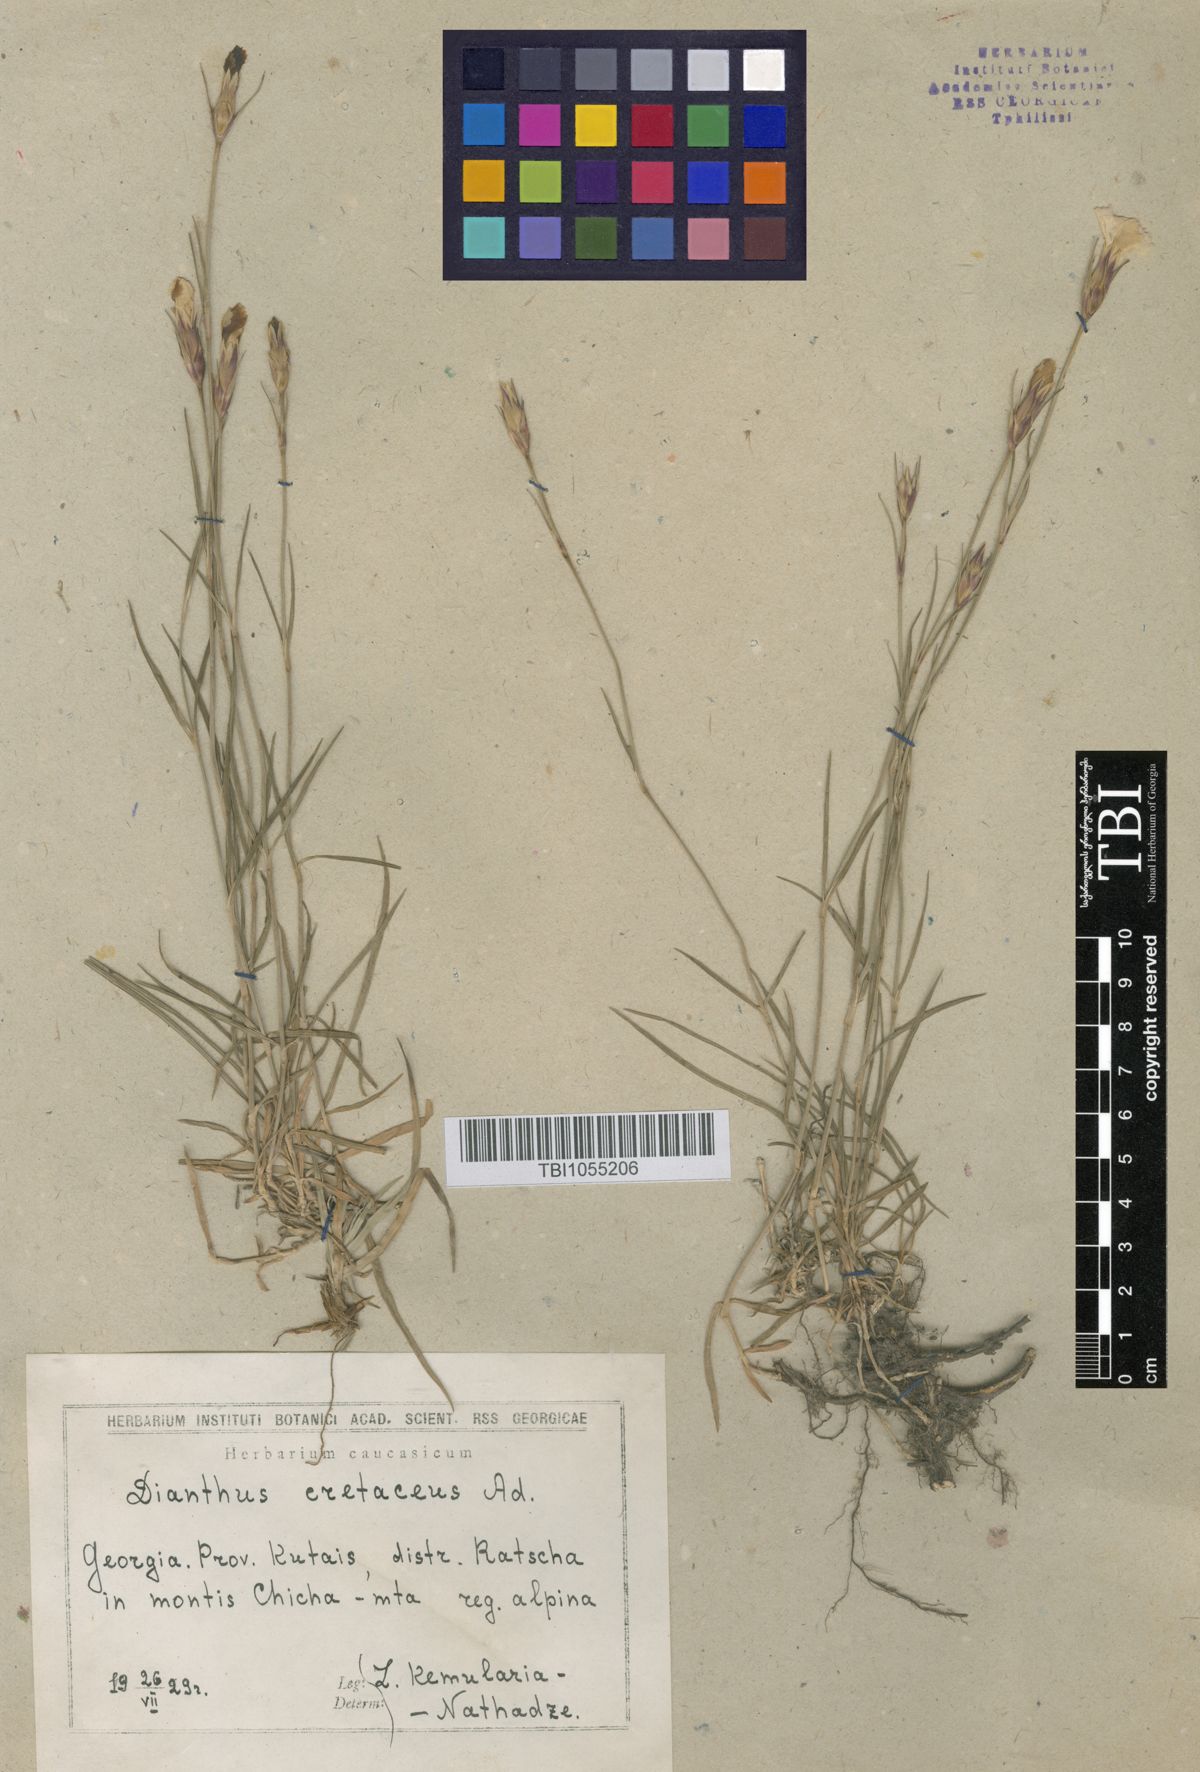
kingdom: Plantae
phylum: Tracheophyta
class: Magnoliopsida
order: Caryophyllales
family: Caryophyllaceae
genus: Dianthus
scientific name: Dianthus cretaceus
